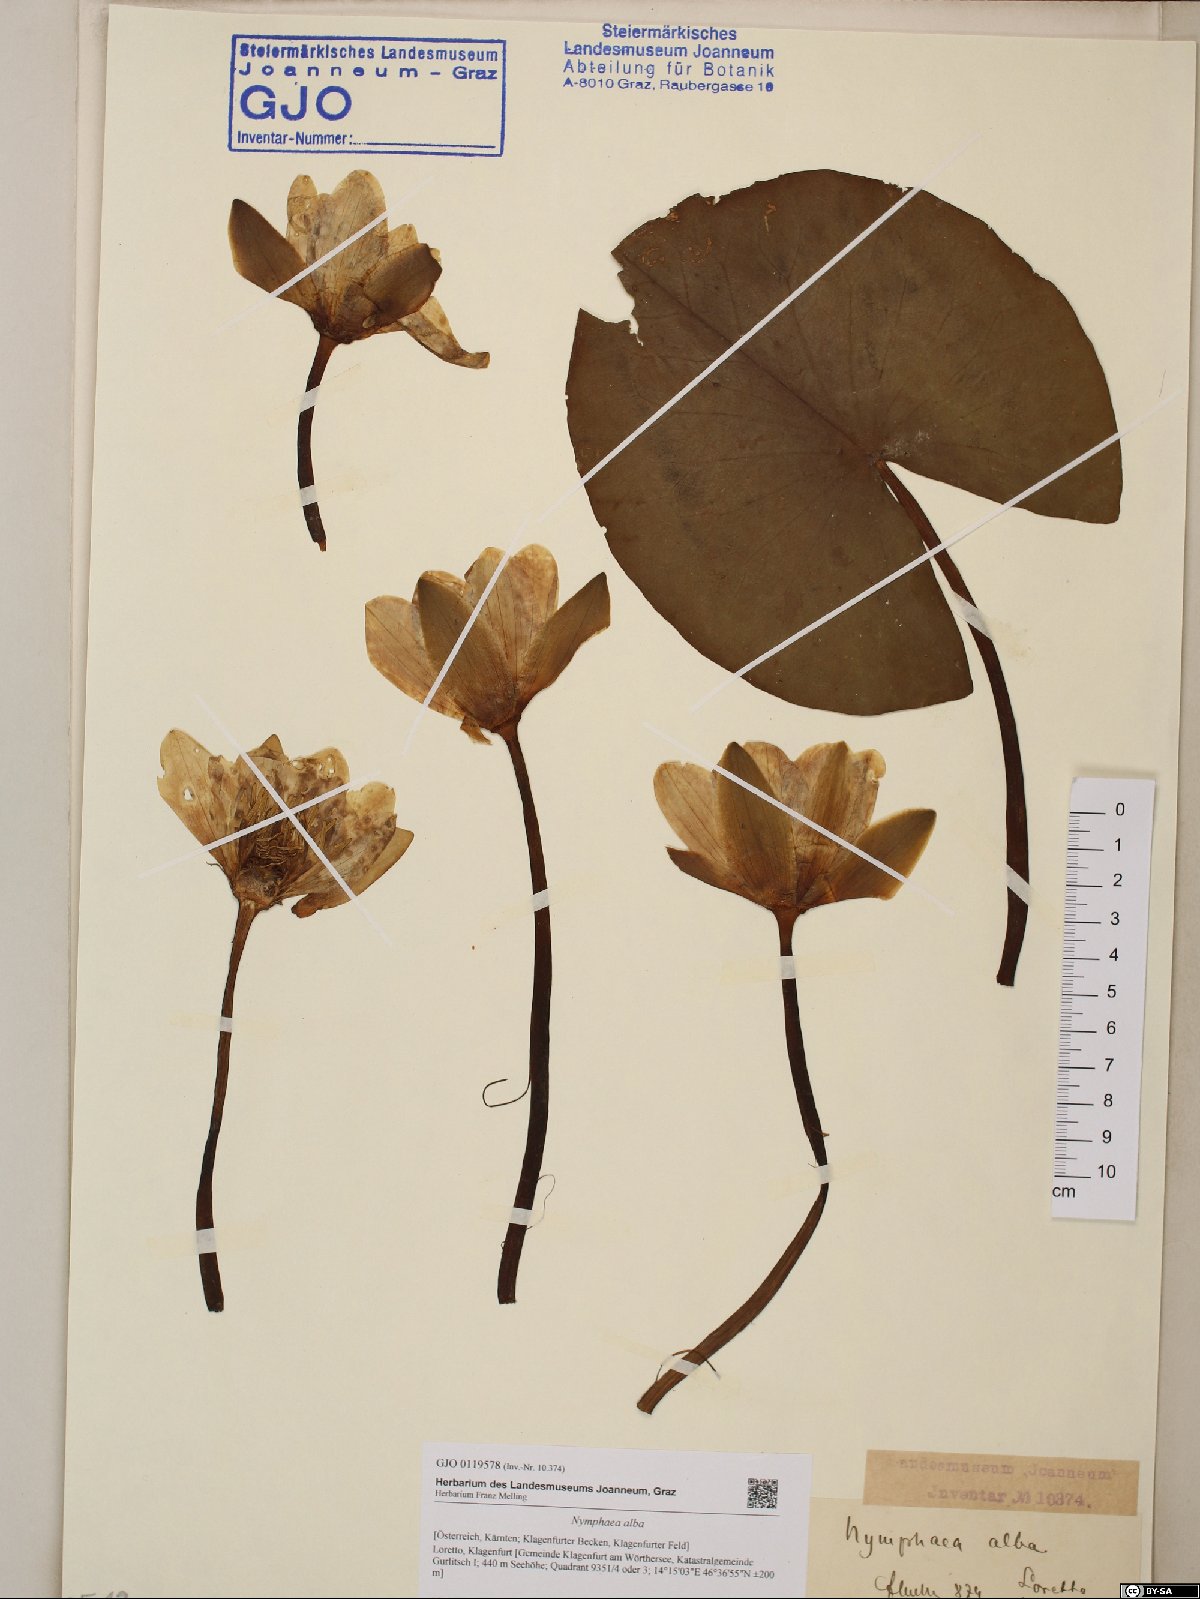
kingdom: Plantae
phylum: Tracheophyta
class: Magnoliopsida
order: Nymphaeales
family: Nymphaeaceae
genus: Nymphaea
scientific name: Nymphaea alba
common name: White water-lily
